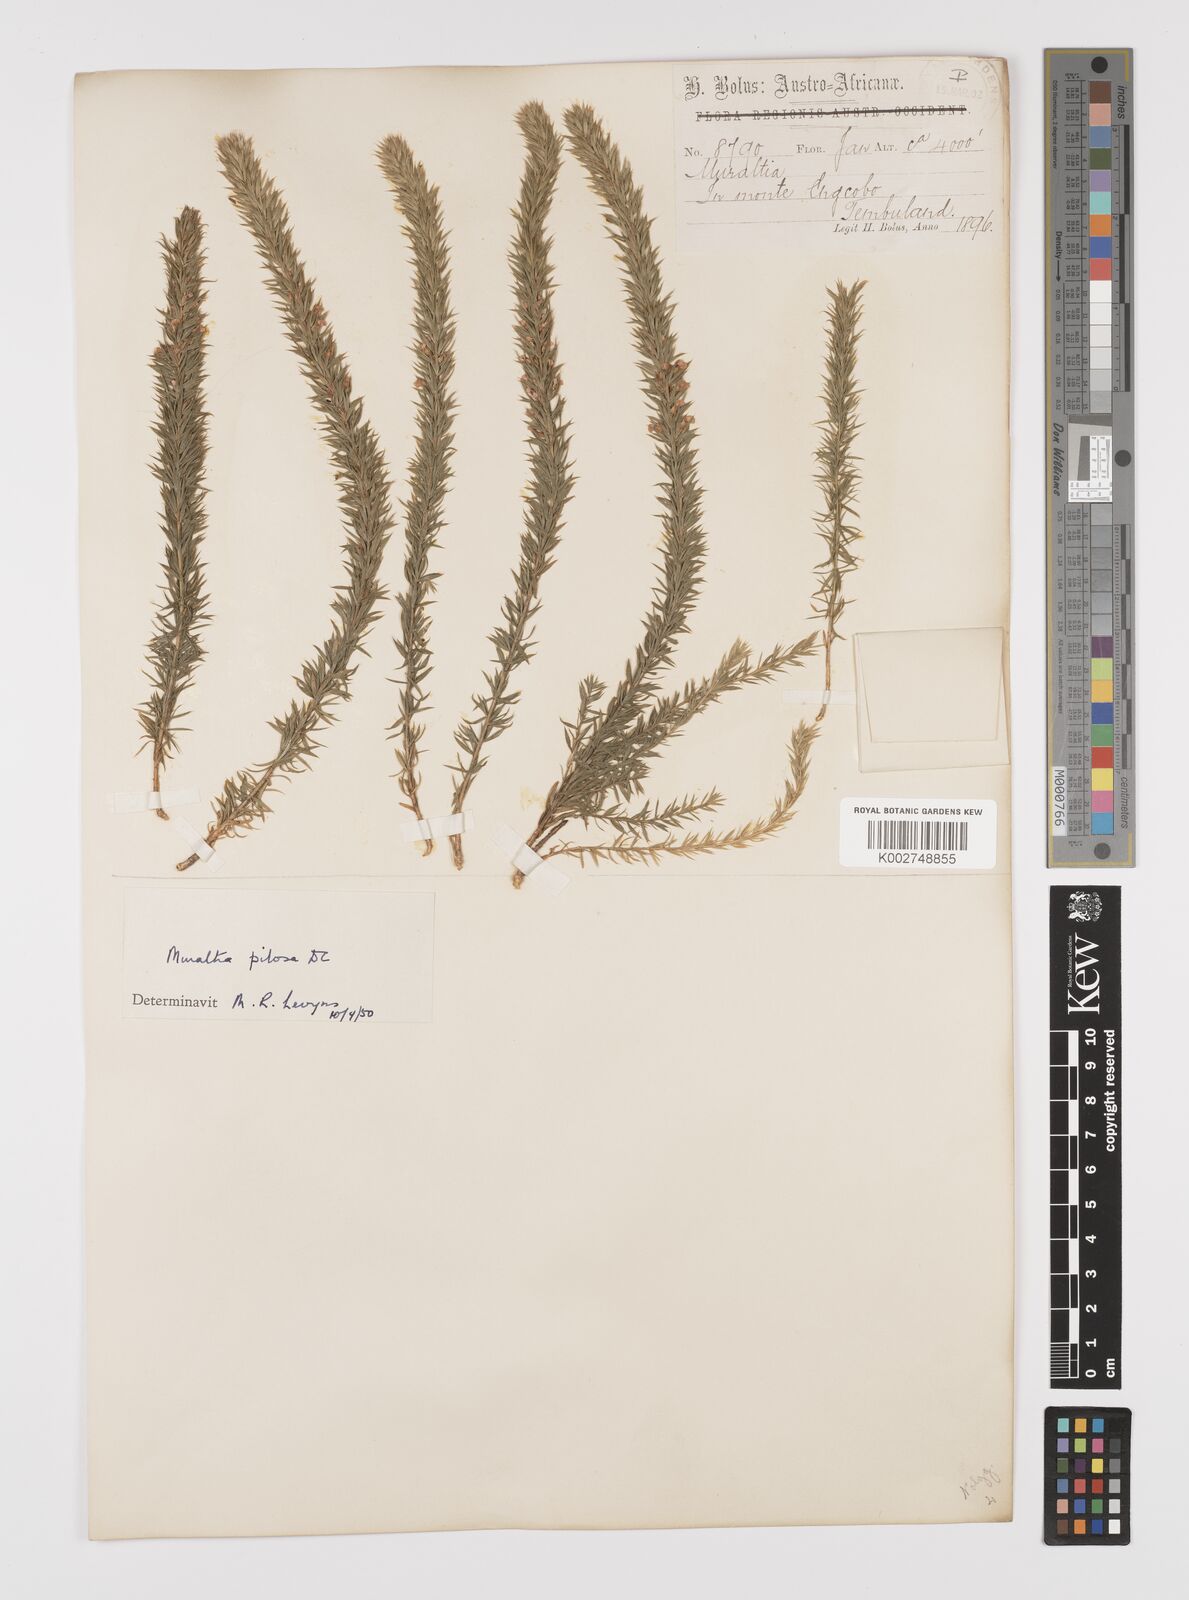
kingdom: Plantae
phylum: Tracheophyta
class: Magnoliopsida
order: Fabales
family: Polygalaceae
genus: Muraltia
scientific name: Muraltia lancifolia
